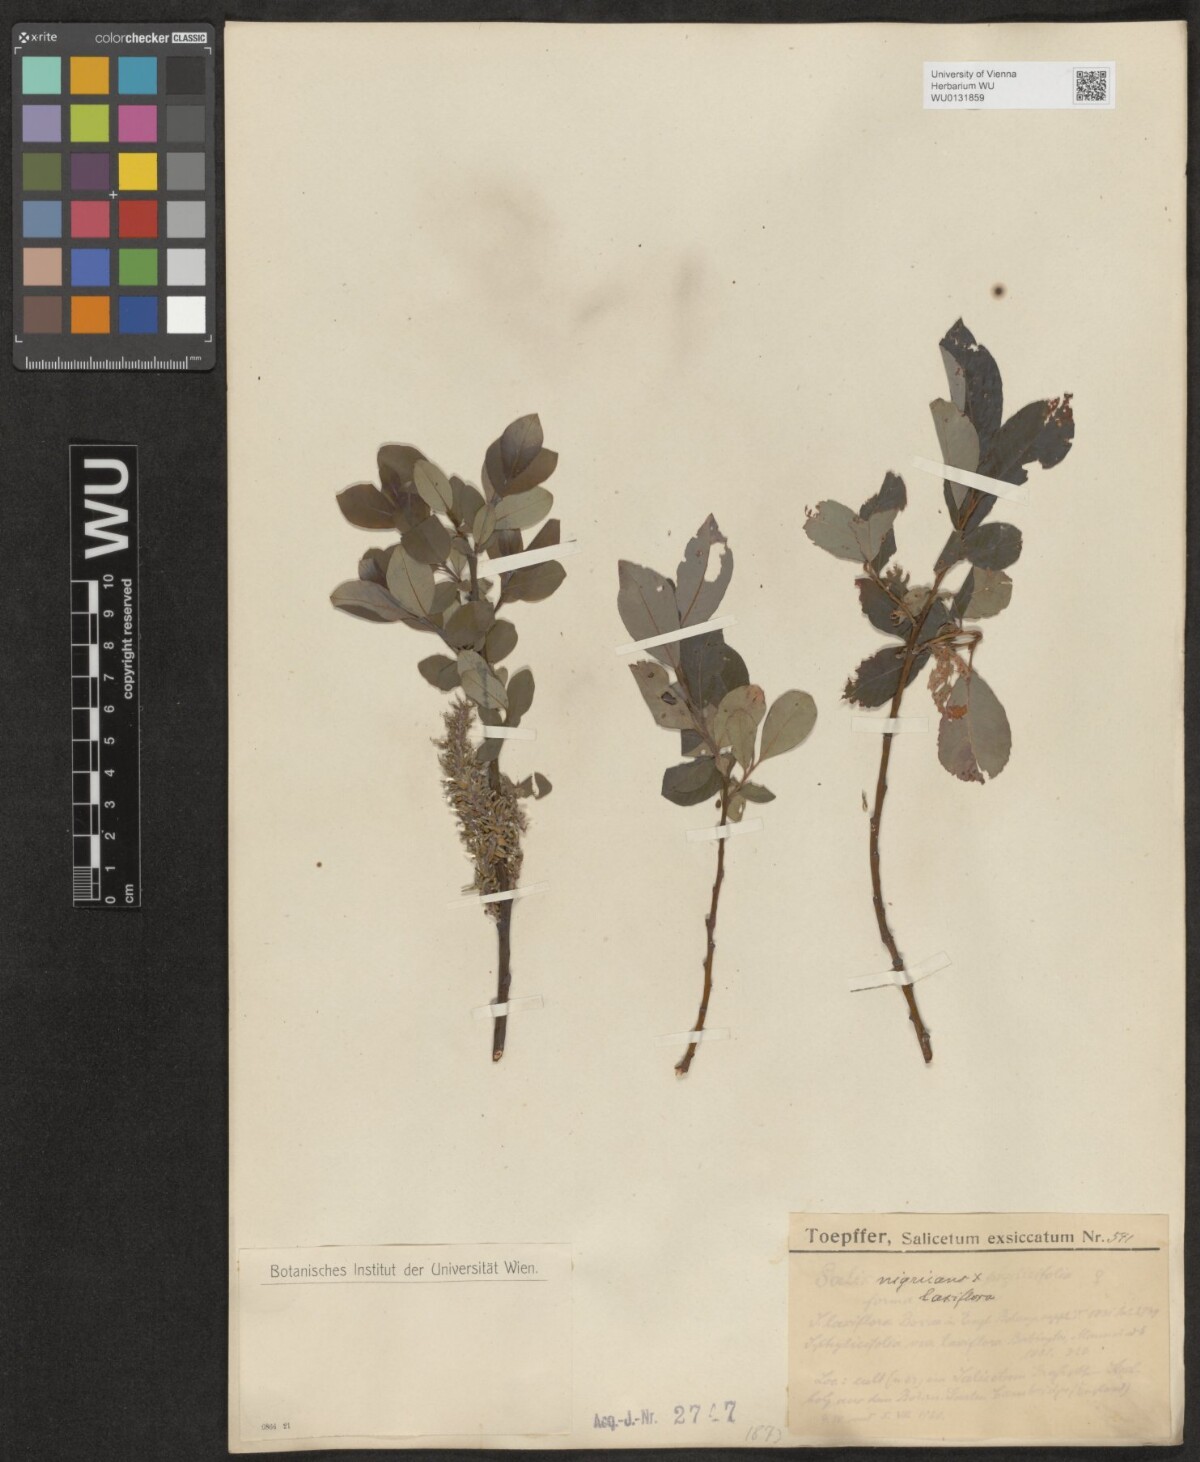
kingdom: Plantae
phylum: Tracheophyta
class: Magnoliopsida
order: Malpighiales
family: Salicaceae
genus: Salix
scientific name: Salix myrsinifolia
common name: Dark-leaved willow
